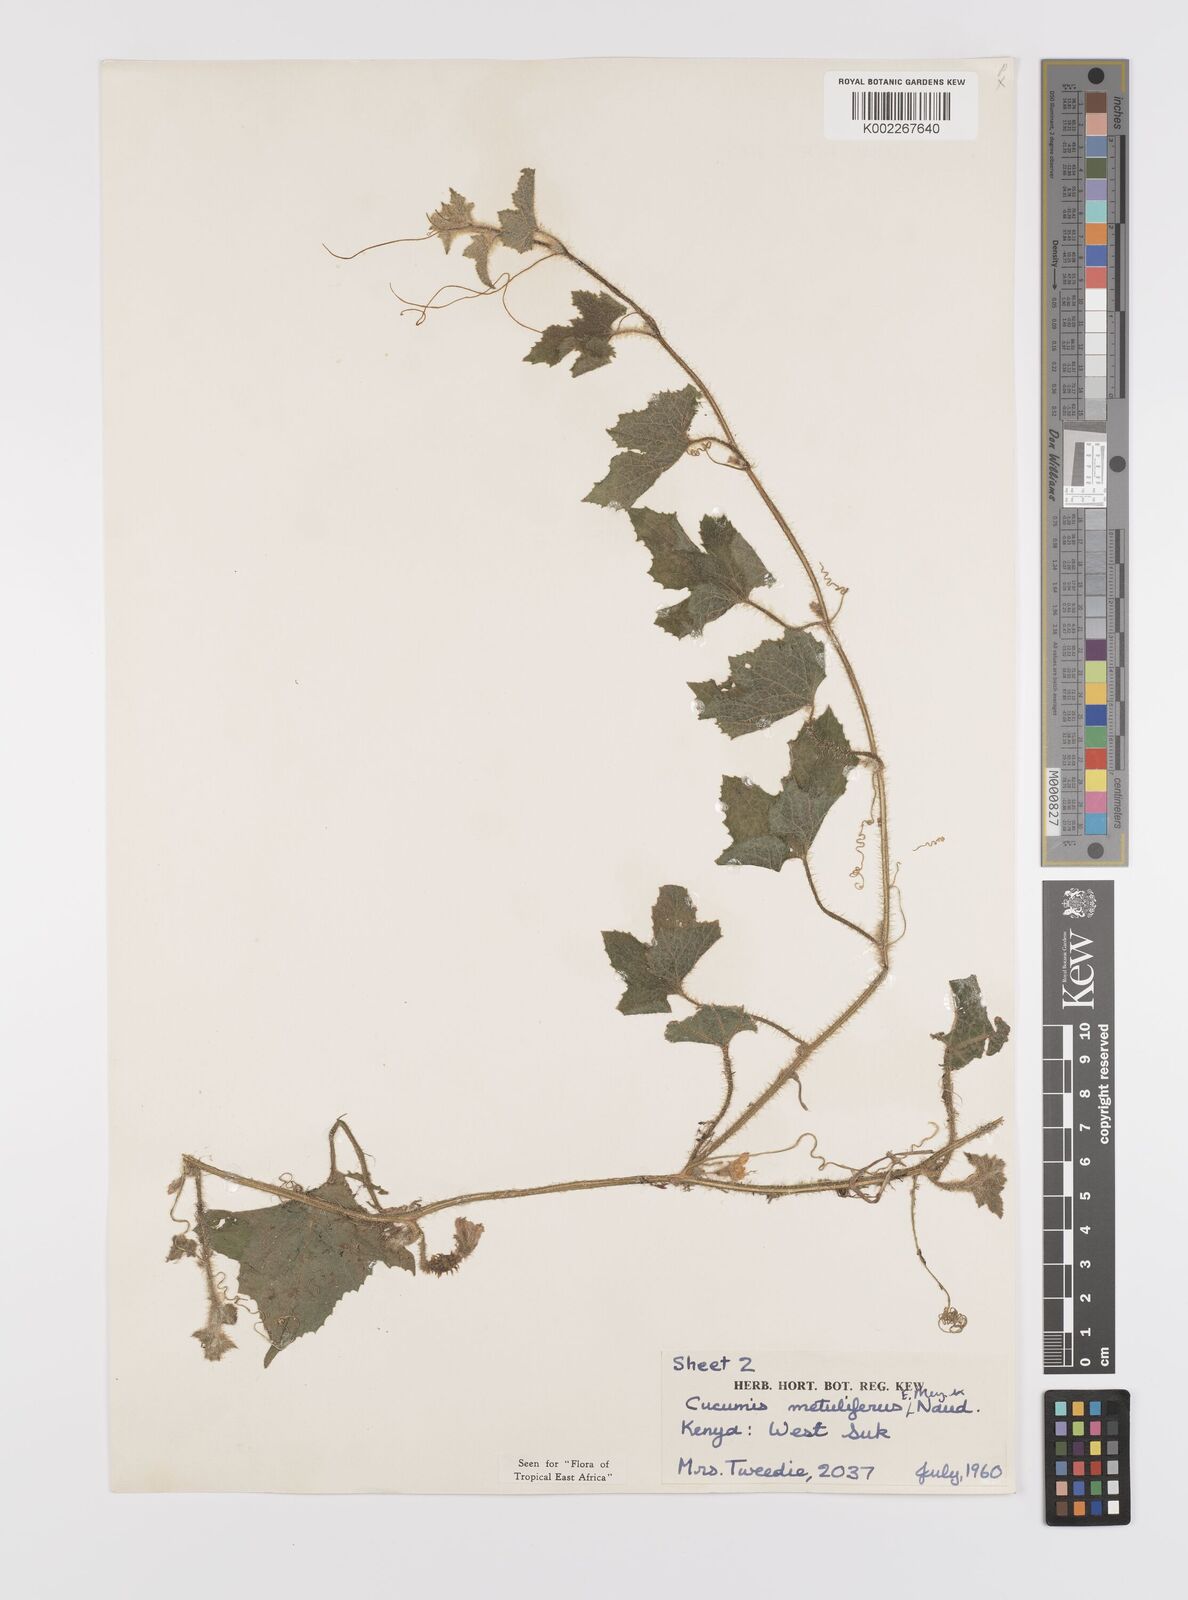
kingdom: Plantae
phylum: Tracheophyta
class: Magnoliopsida
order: Cucurbitales
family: Cucurbitaceae
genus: Cucumis
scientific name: Cucumis metuliferus
